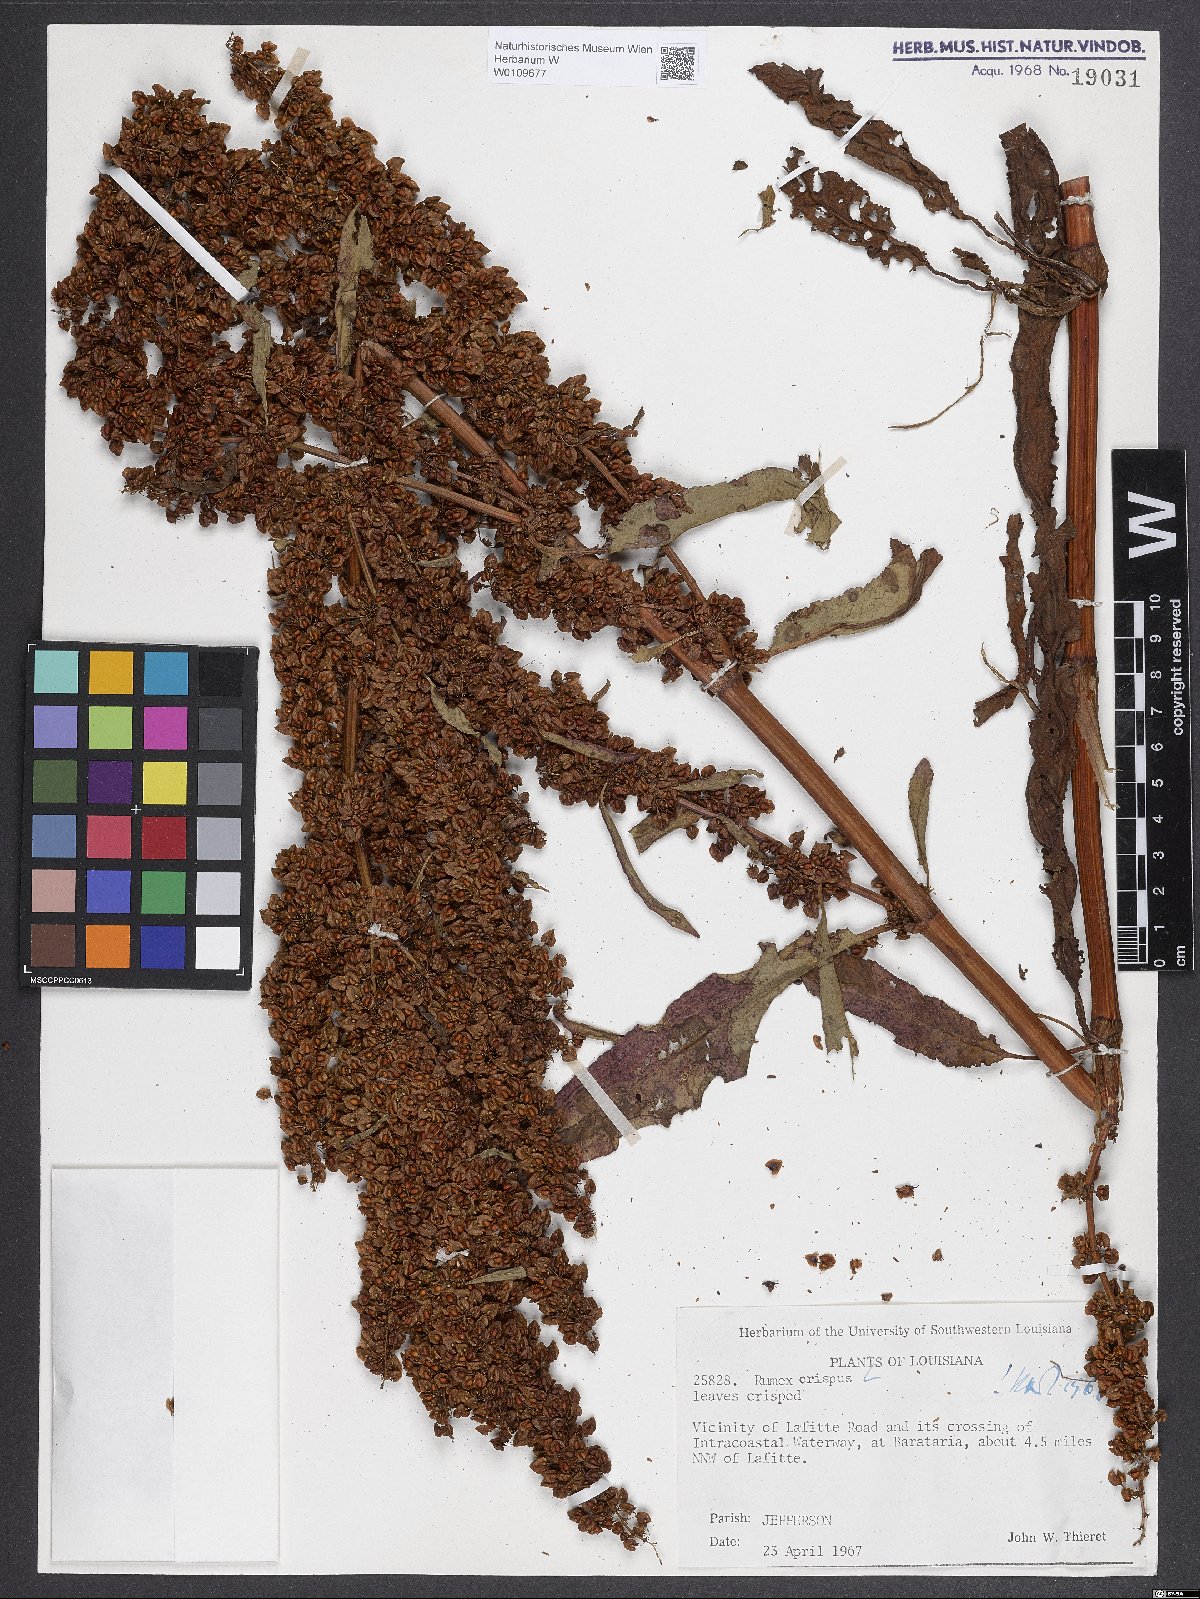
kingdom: Plantae
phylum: Tracheophyta
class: Magnoliopsida
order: Caryophyllales
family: Polygonaceae
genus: Rumex
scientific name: Rumex crispus
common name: Curled dock
